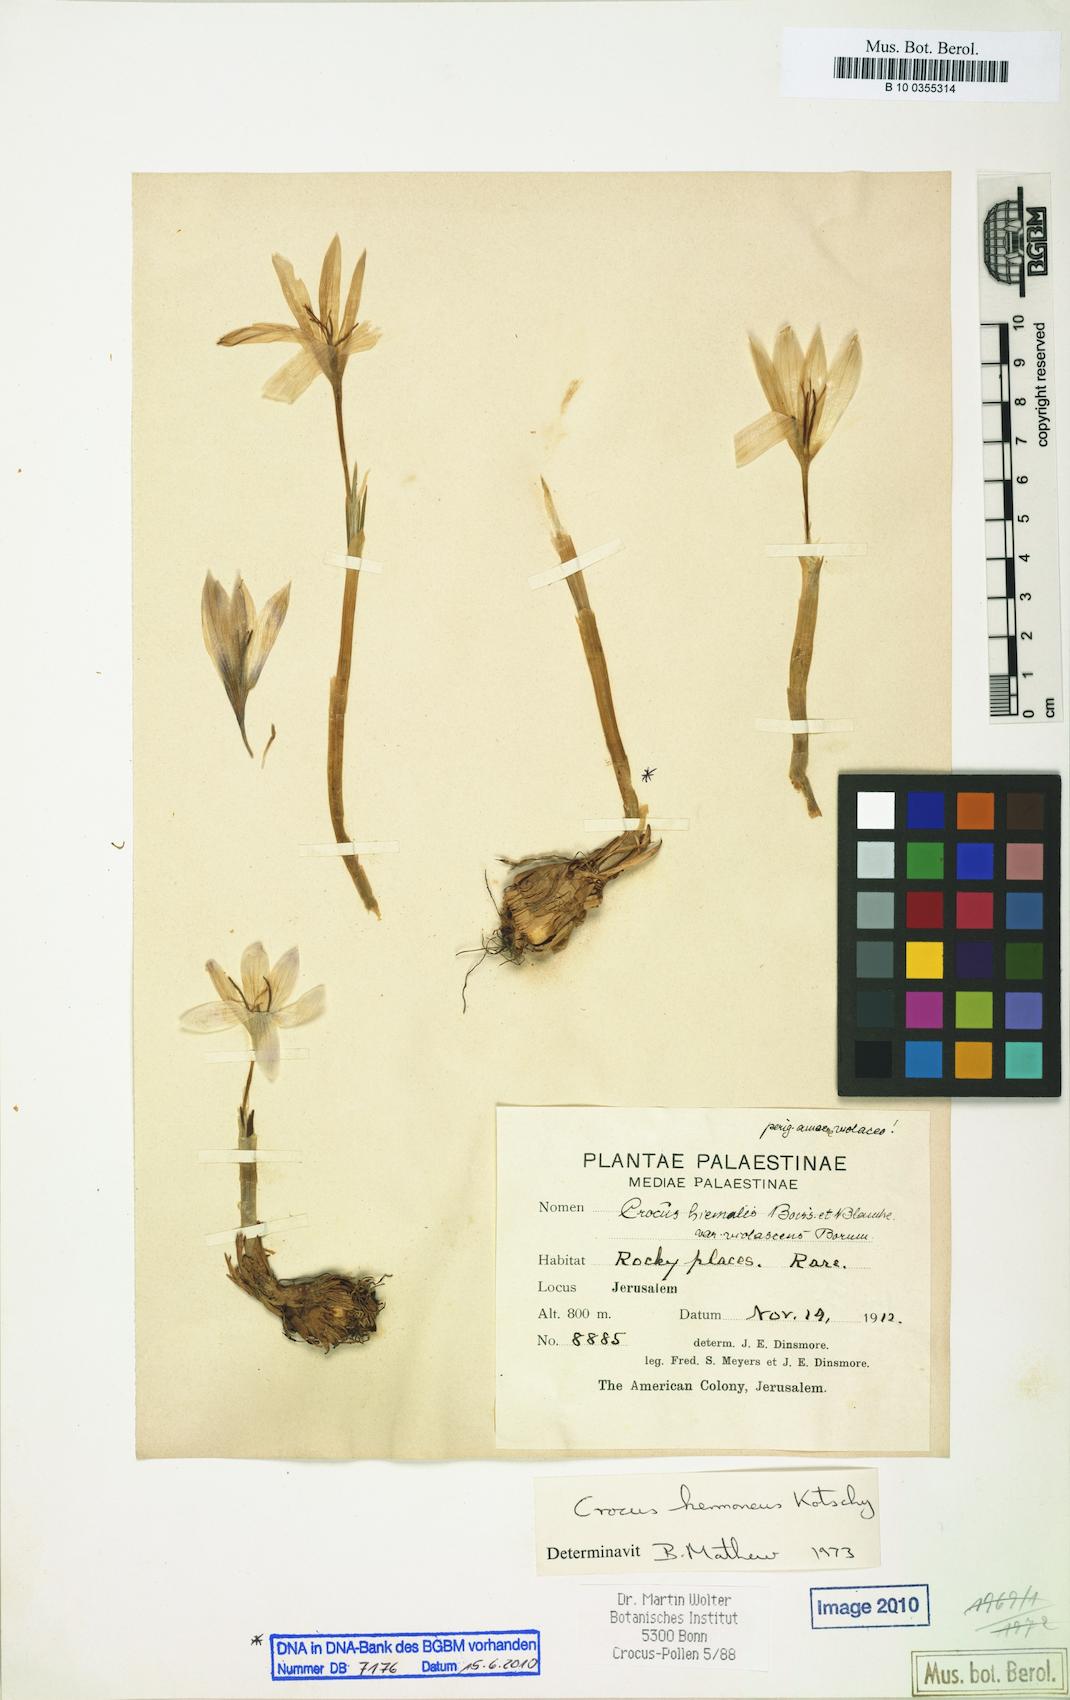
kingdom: Plantae
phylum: Tracheophyta
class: Liliopsida
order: Asparagales
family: Iridaceae
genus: Crocus
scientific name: Crocus hermoneus
